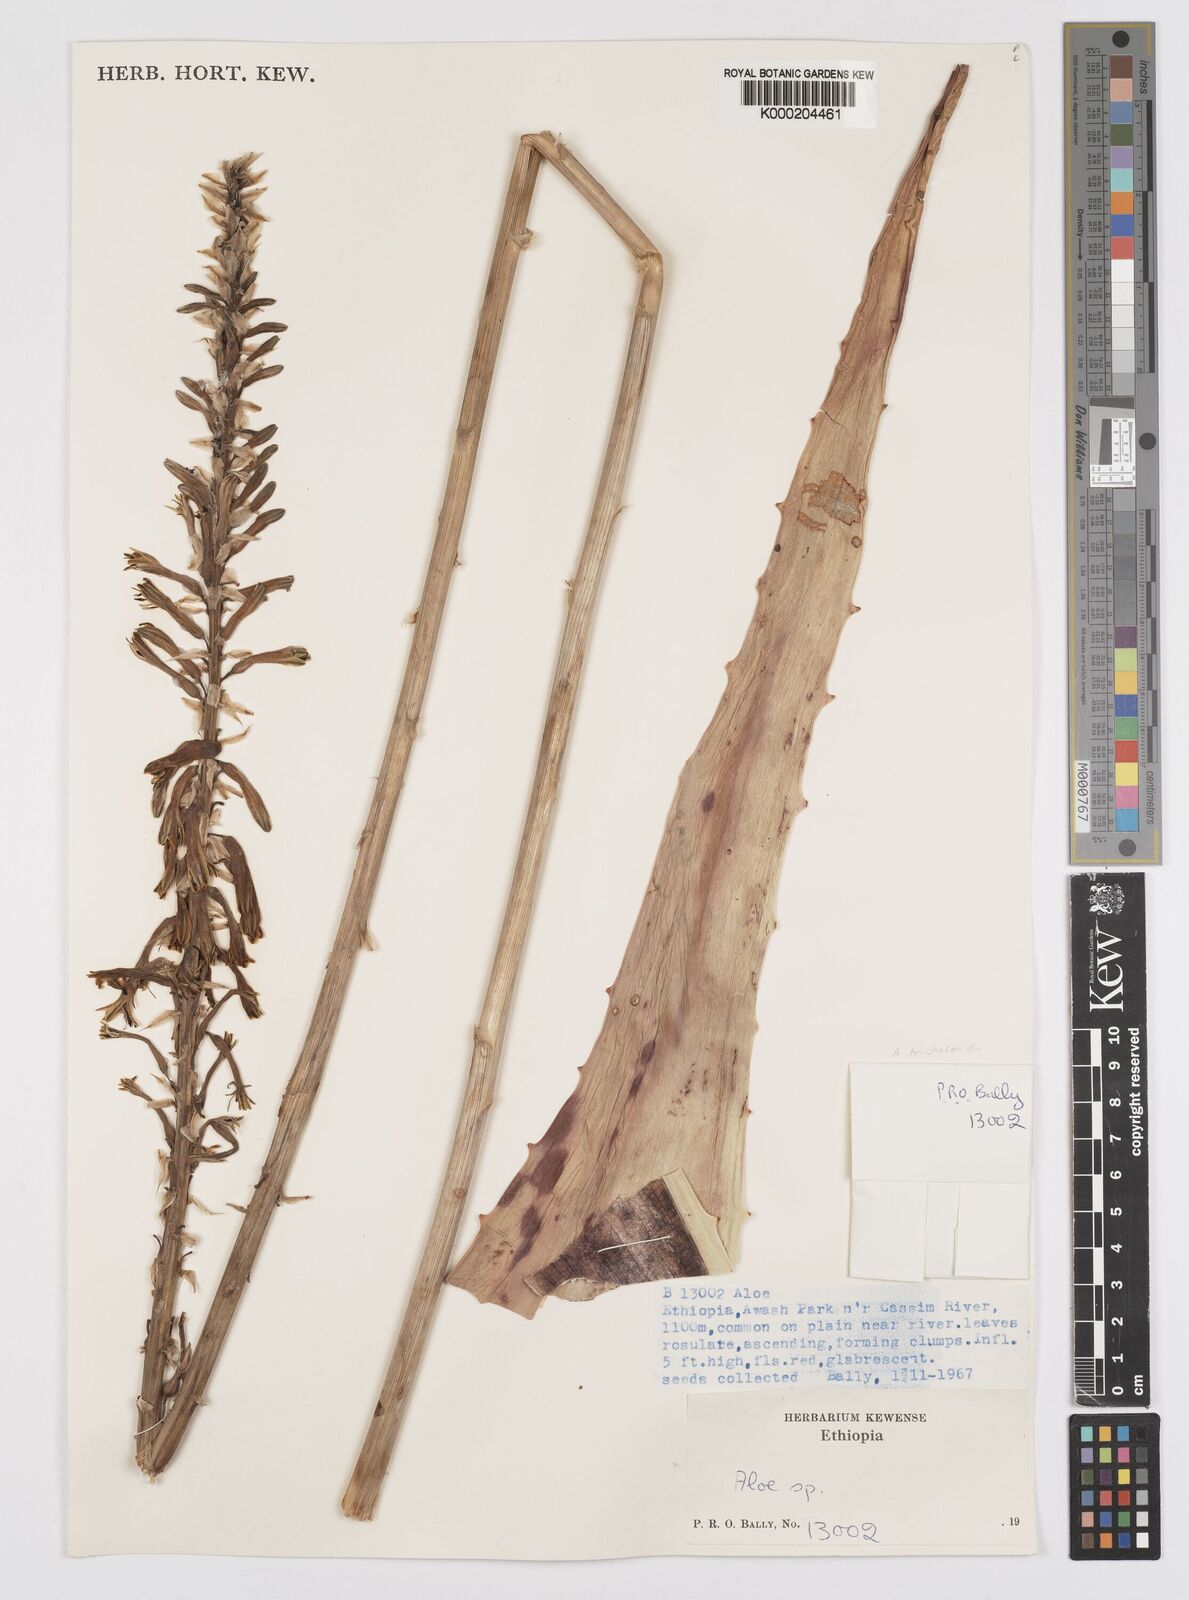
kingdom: Plantae
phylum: Tracheophyta
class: Liliopsida
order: Asparagales
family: Asphodelaceae
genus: Aloe
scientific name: Aloe trichosantha
